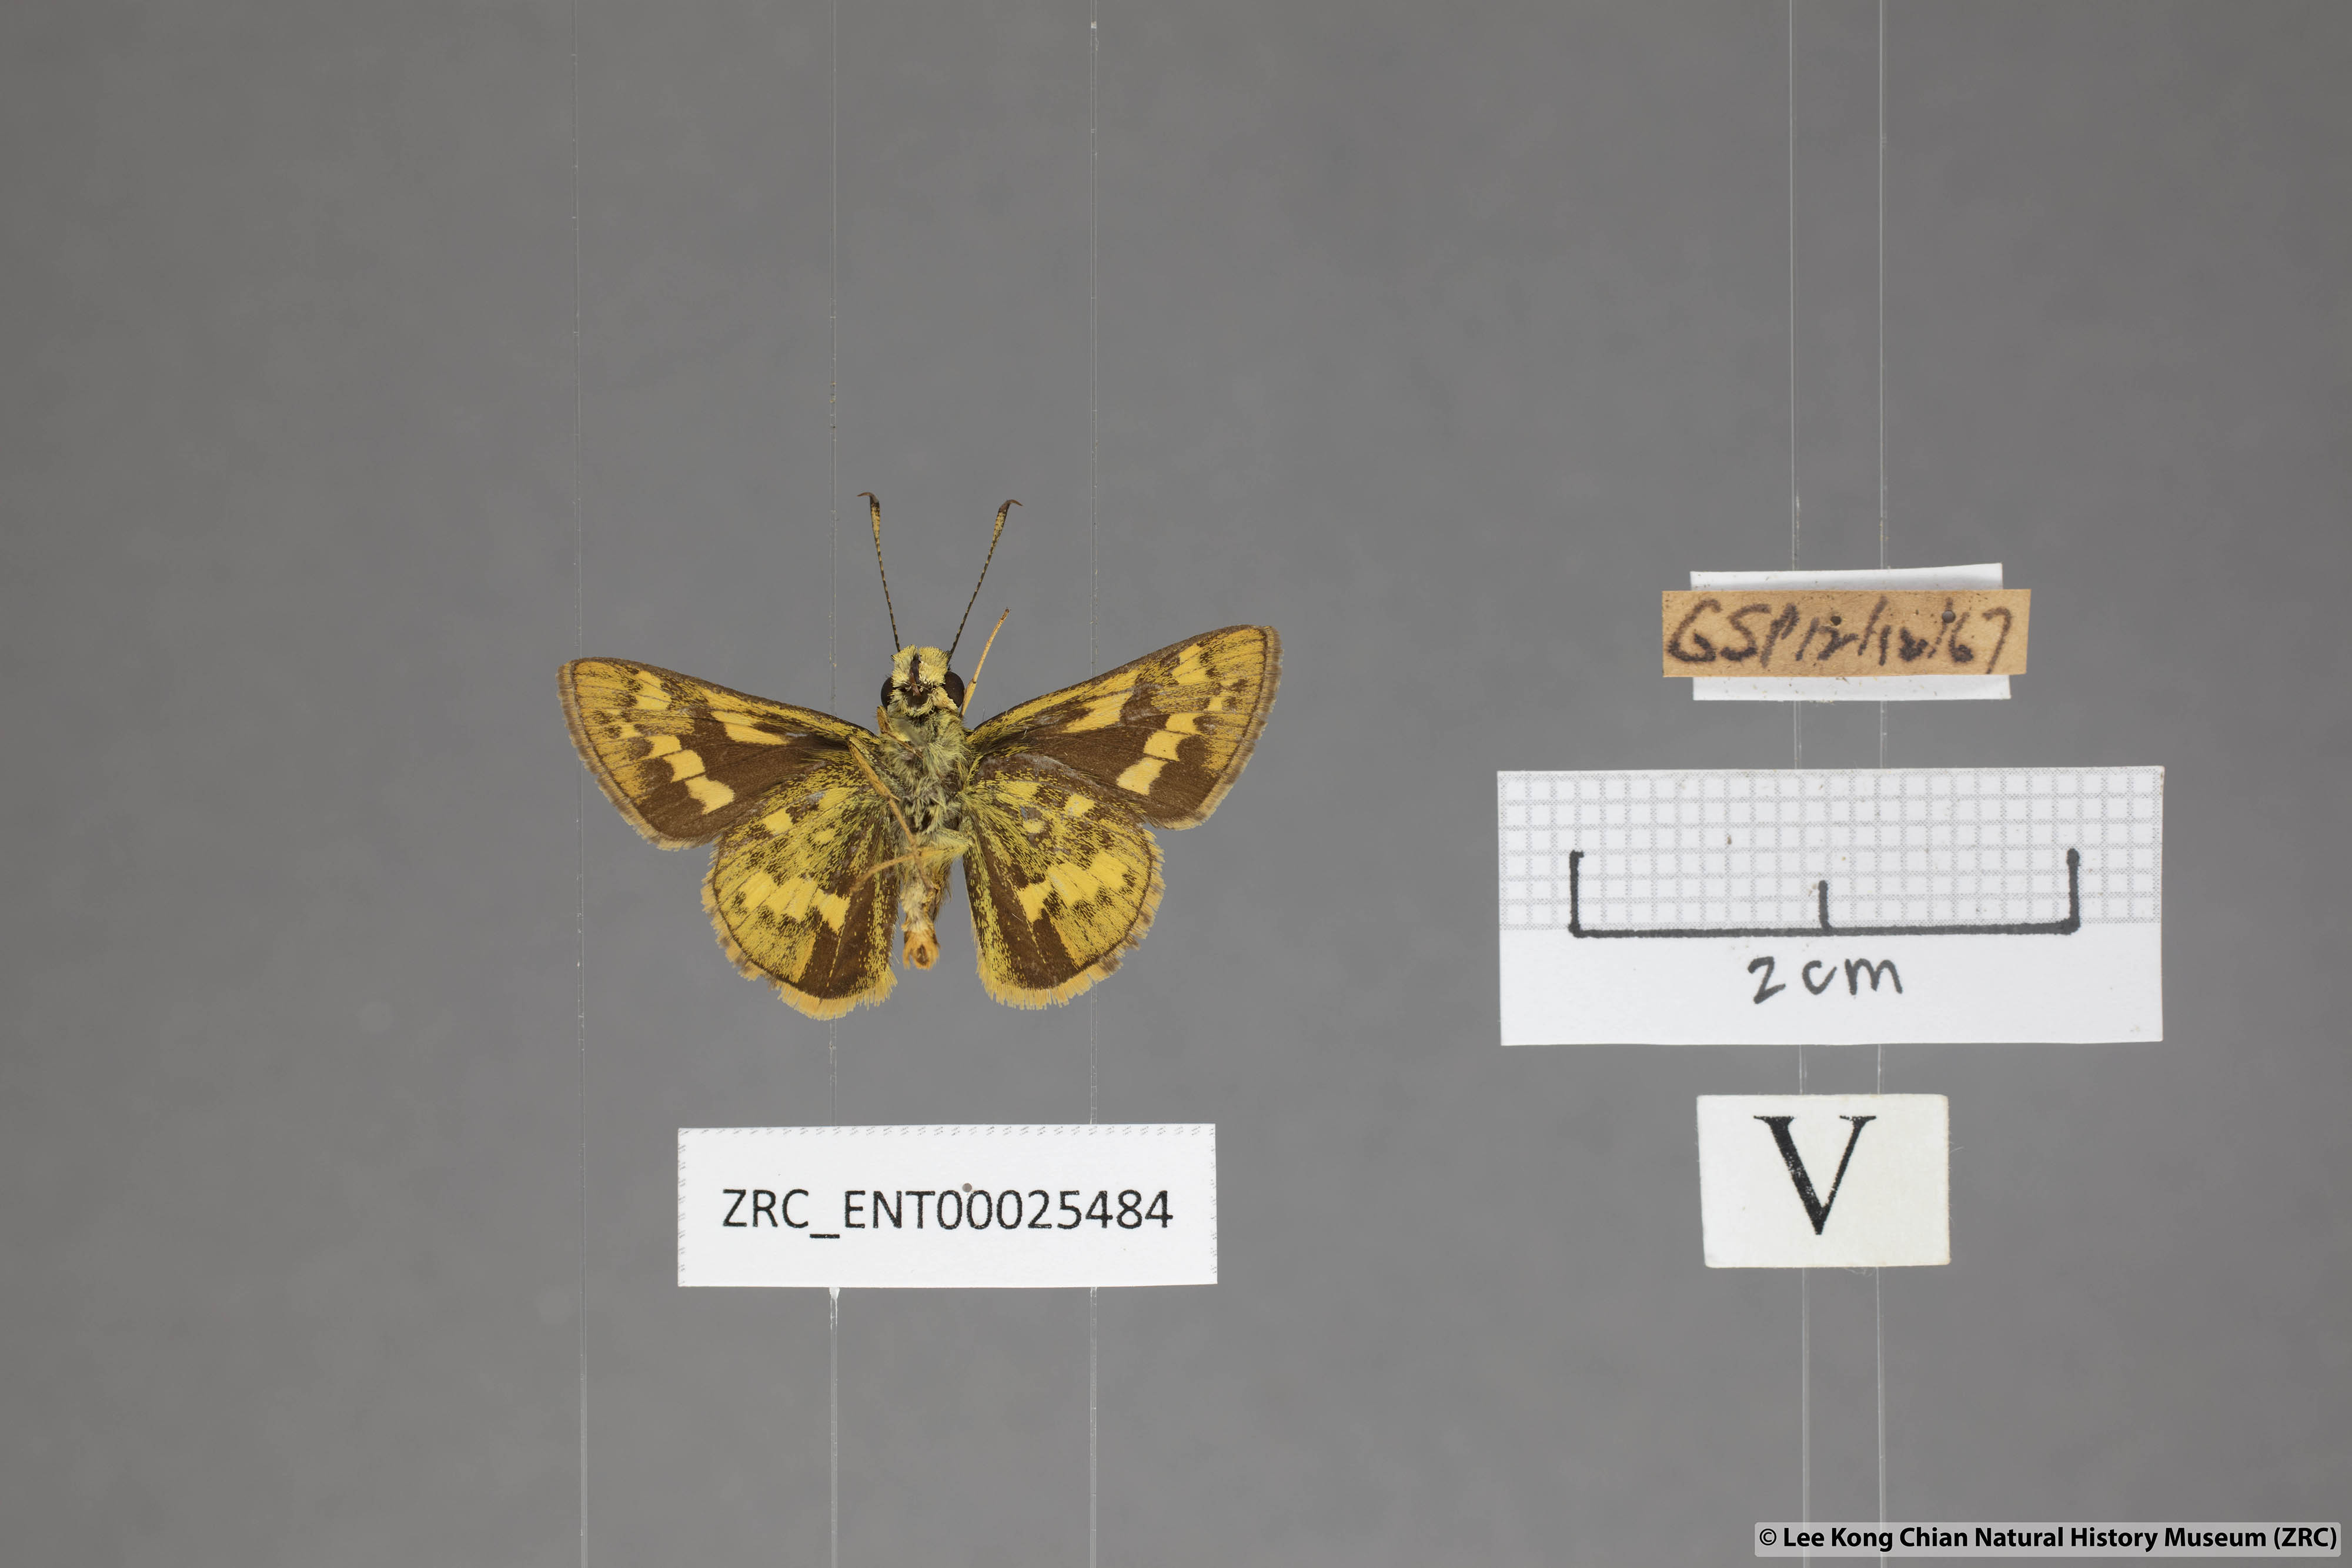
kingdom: Animalia
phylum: Arthropoda
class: Insecta
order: Lepidoptera
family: Hesperiidae
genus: Potanthus
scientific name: Potanthus trachala
